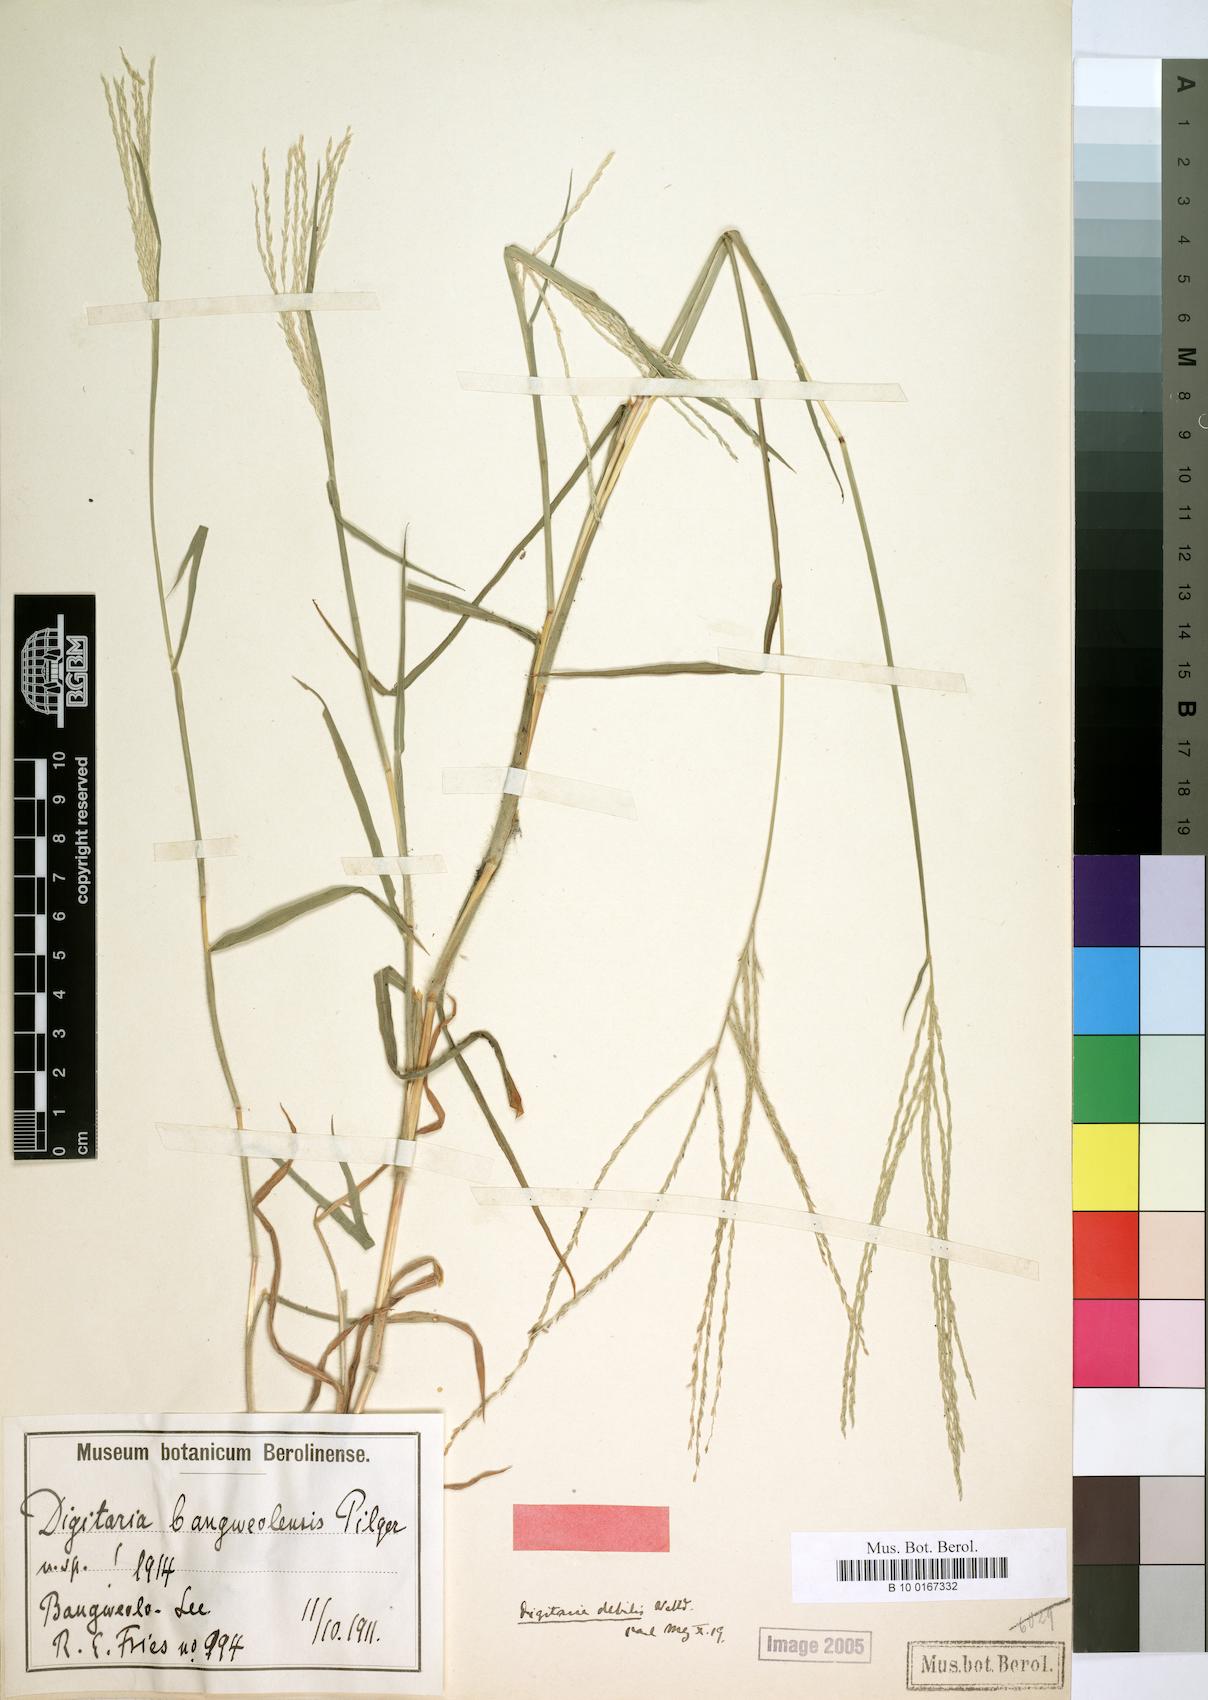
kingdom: Plantae
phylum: Tracheophyta
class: Liliopsida
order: Poales
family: Poaceae
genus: Digitaria
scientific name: Digitaria debilis
